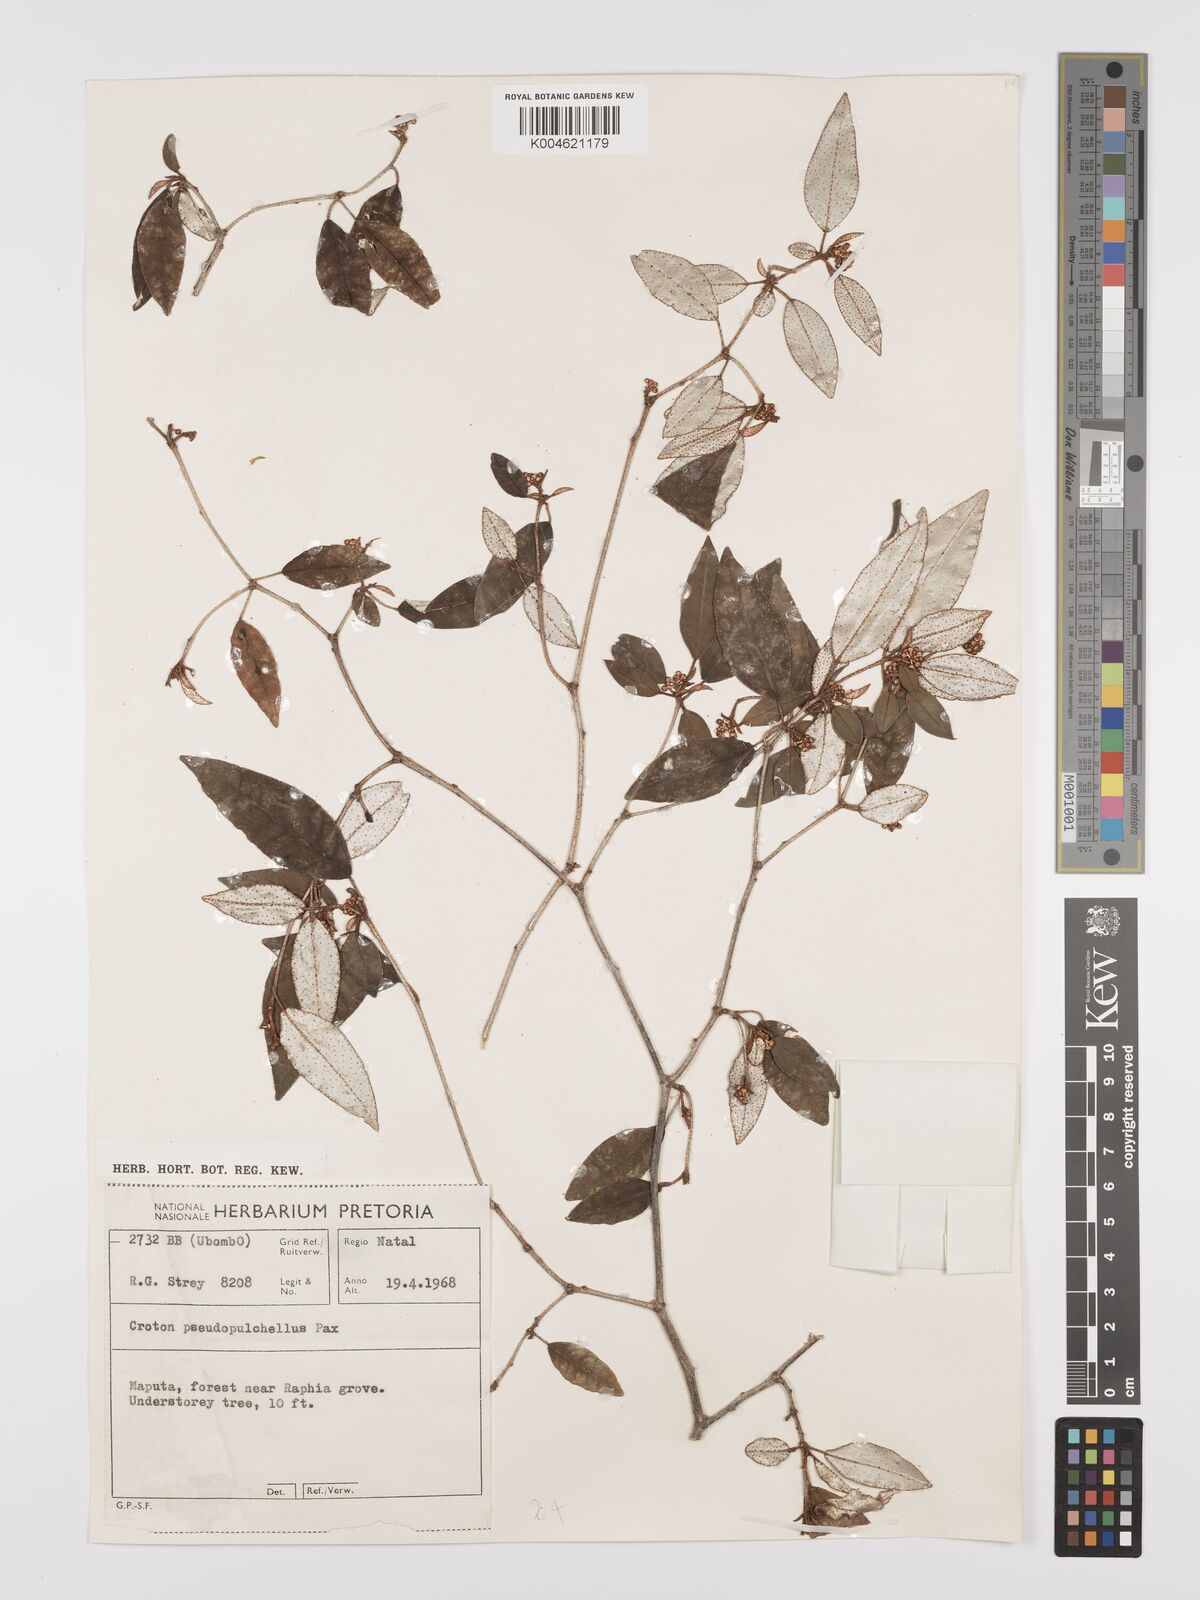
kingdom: Plantae
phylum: Tracheophyta
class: Magnoliopsida
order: Malpighiales
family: Euphorbiaceae
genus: Croton
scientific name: Croton pseudopulchellus
